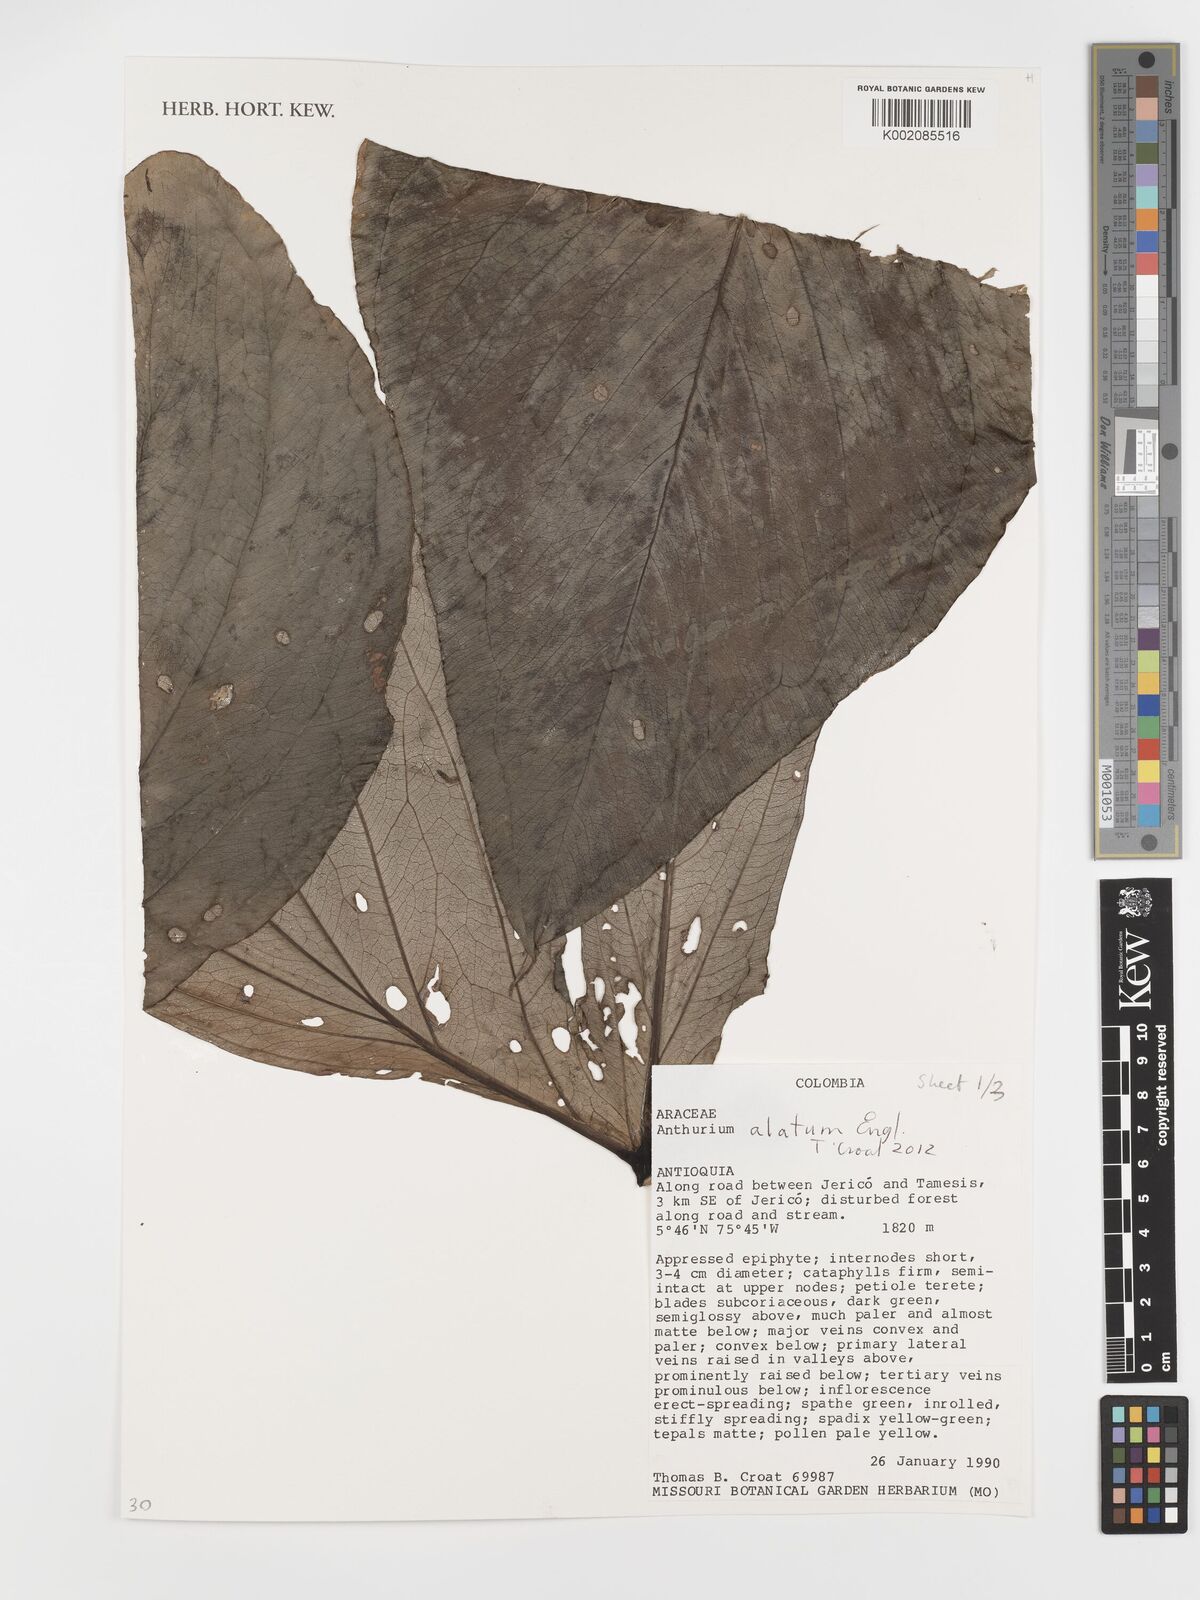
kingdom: Plantae
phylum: Tracheophyta
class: Liliopsida
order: Alismatales
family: Araceae
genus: Anthurium
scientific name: Anthurium alatum
